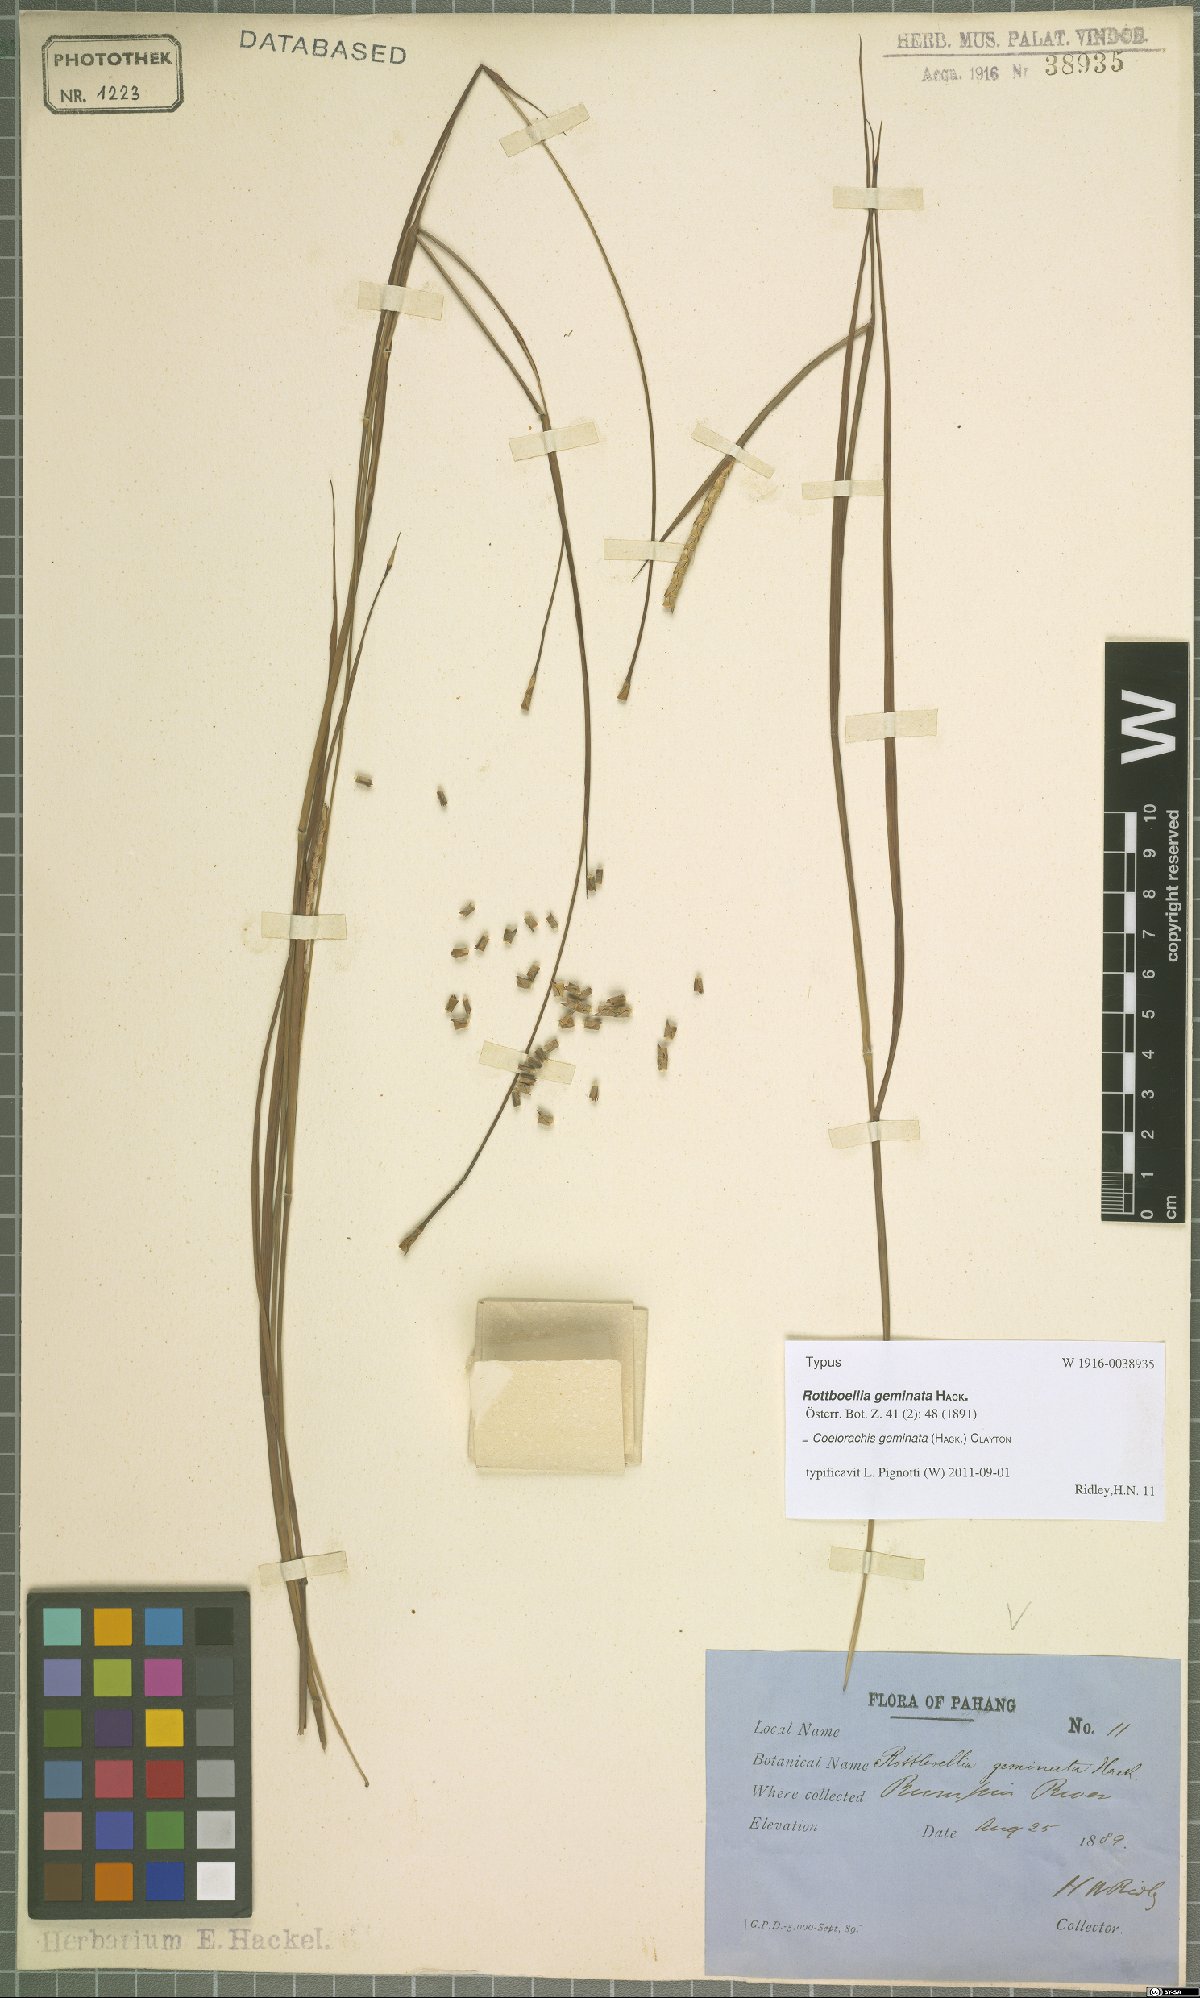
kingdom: Plantae
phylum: Tracheophyta
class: Liliopsida
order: Poales
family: Poaceae
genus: Rottboellia
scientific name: Rottboellia geminata
